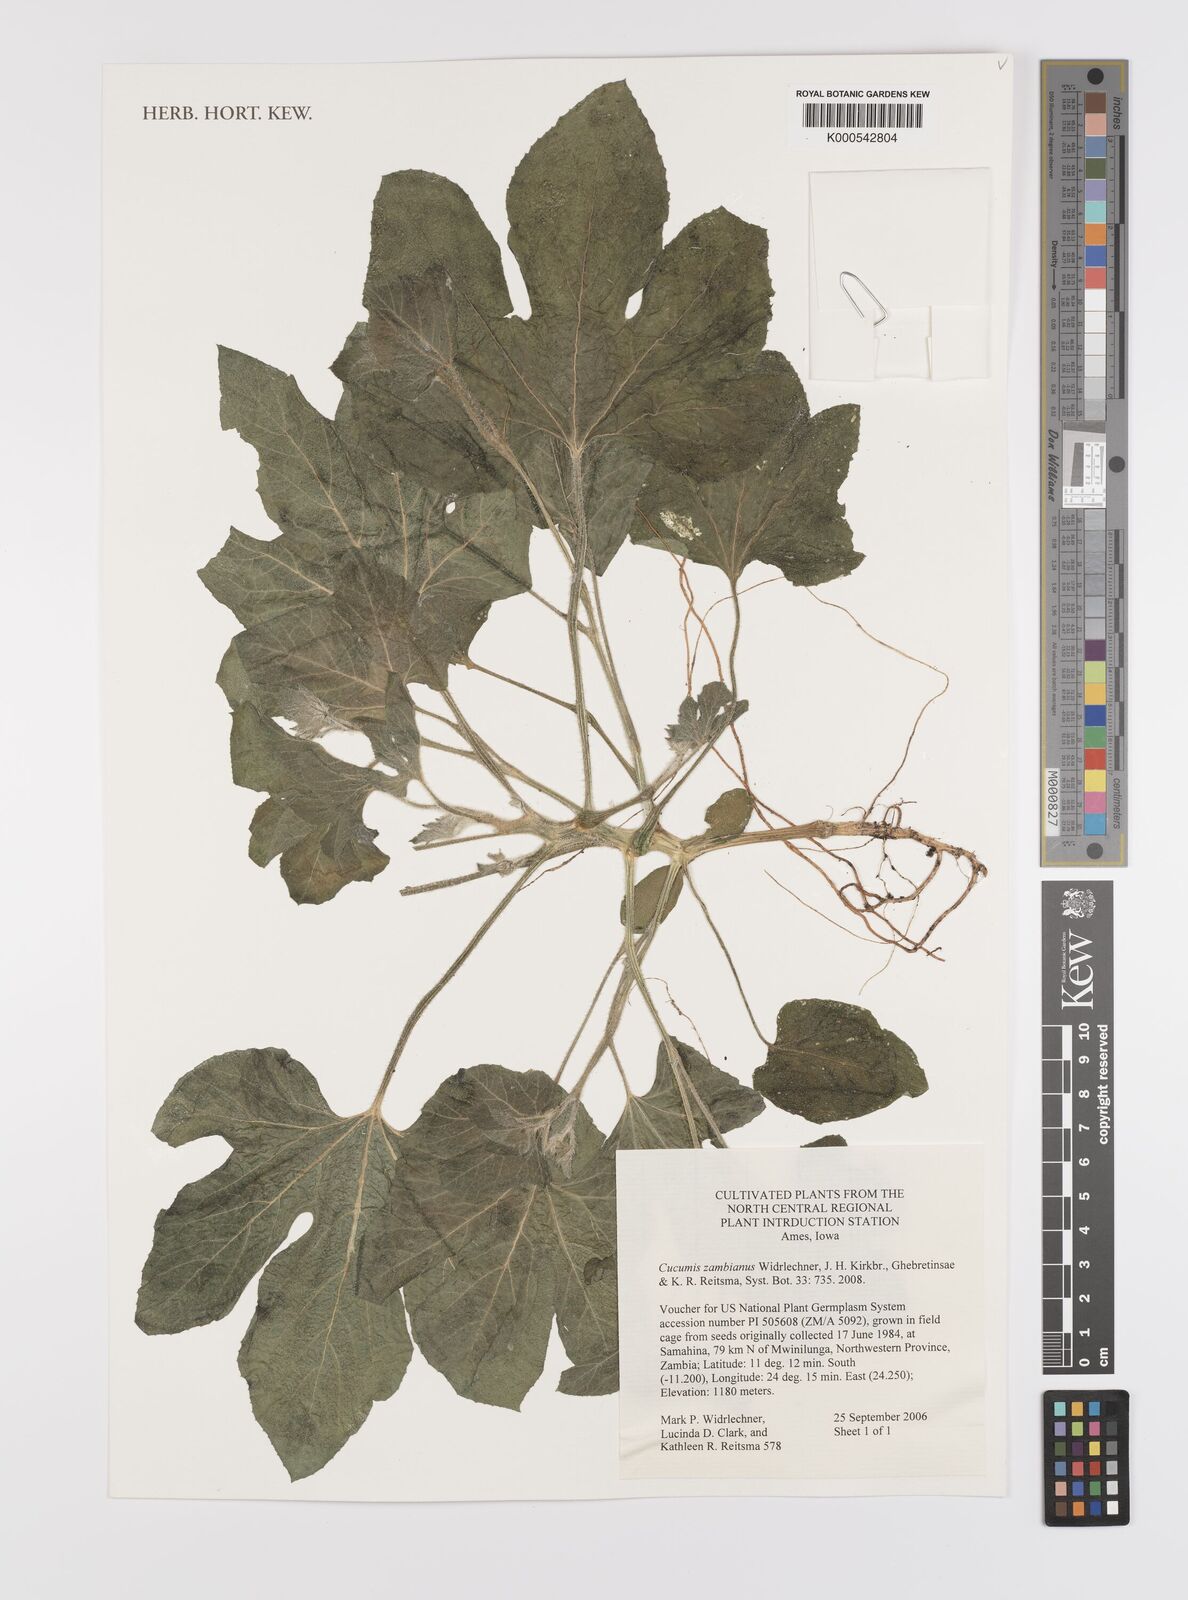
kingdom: Plantae
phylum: Tracheophyta
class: Magnoliopsida
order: Cucurbitales
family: Cucurbitaceae
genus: Cucumis
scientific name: Cucumis zambianus
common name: Katanda
